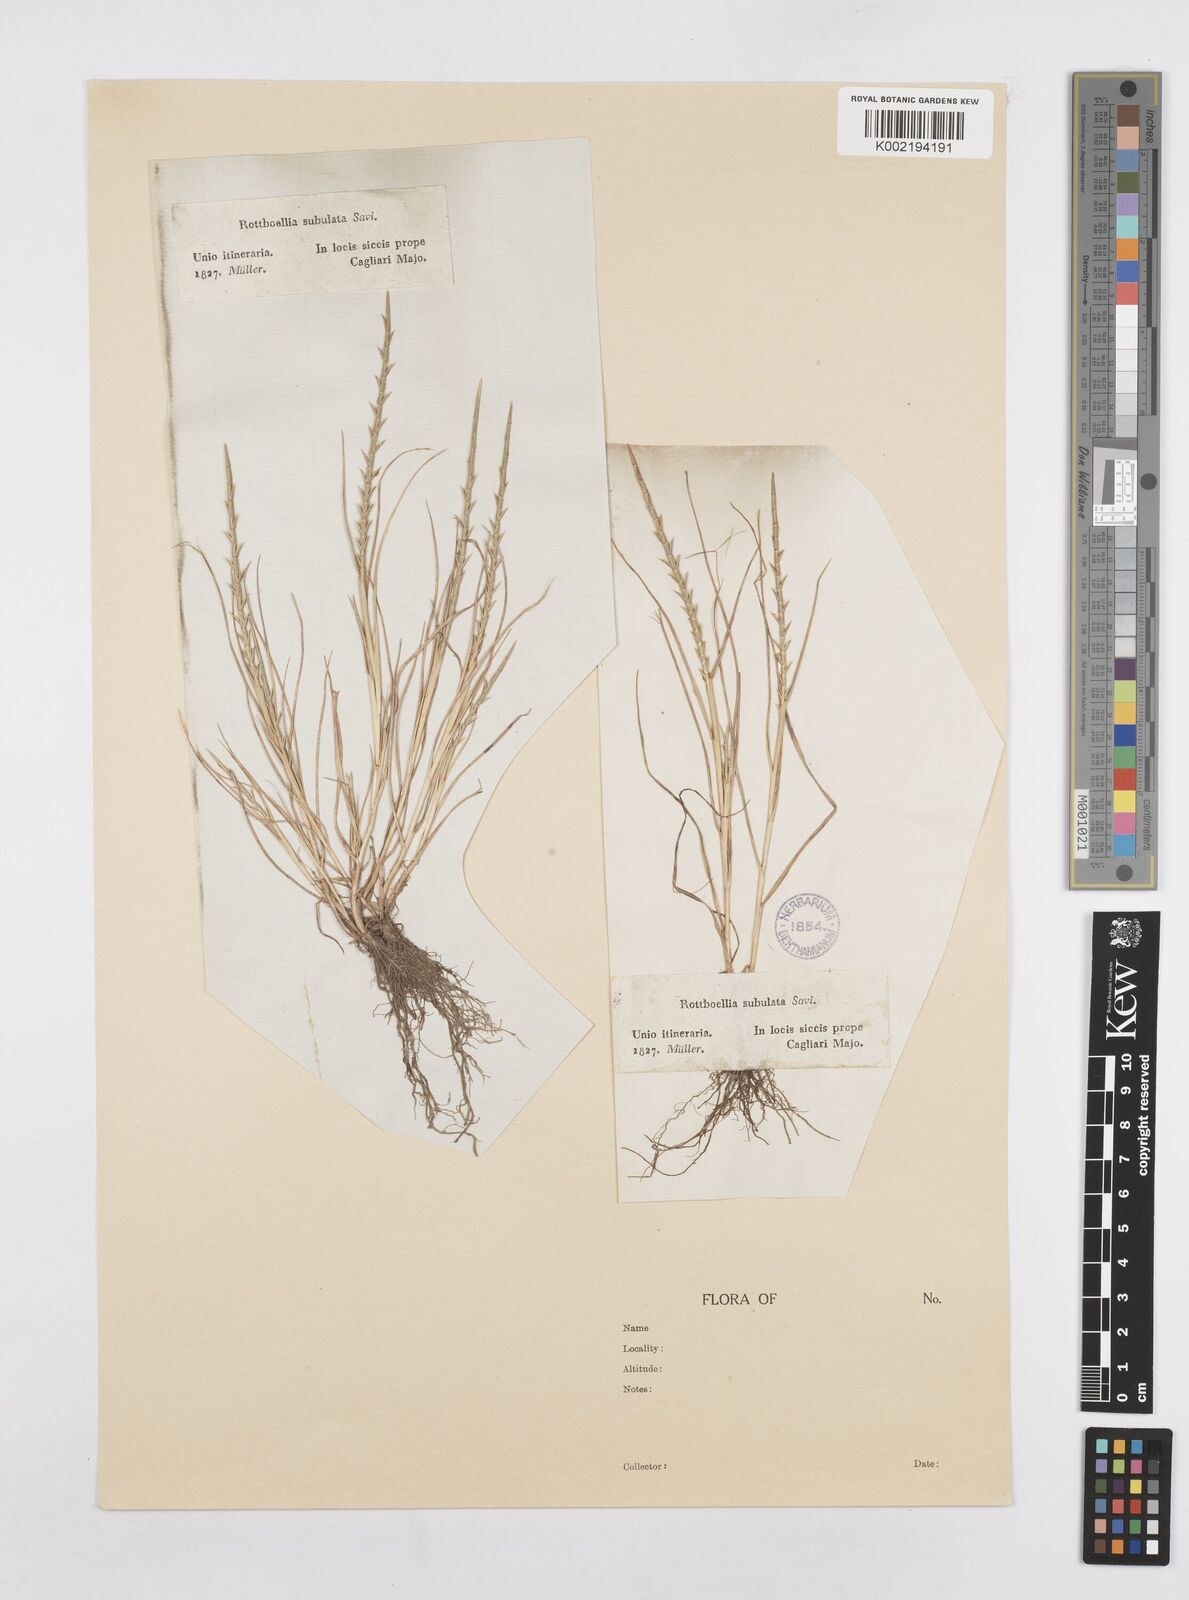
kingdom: Plantae
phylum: Tracheophyta
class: Liliopsida
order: Poales
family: Poaceae
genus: Parapholis
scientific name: Parapholis cylindrica
